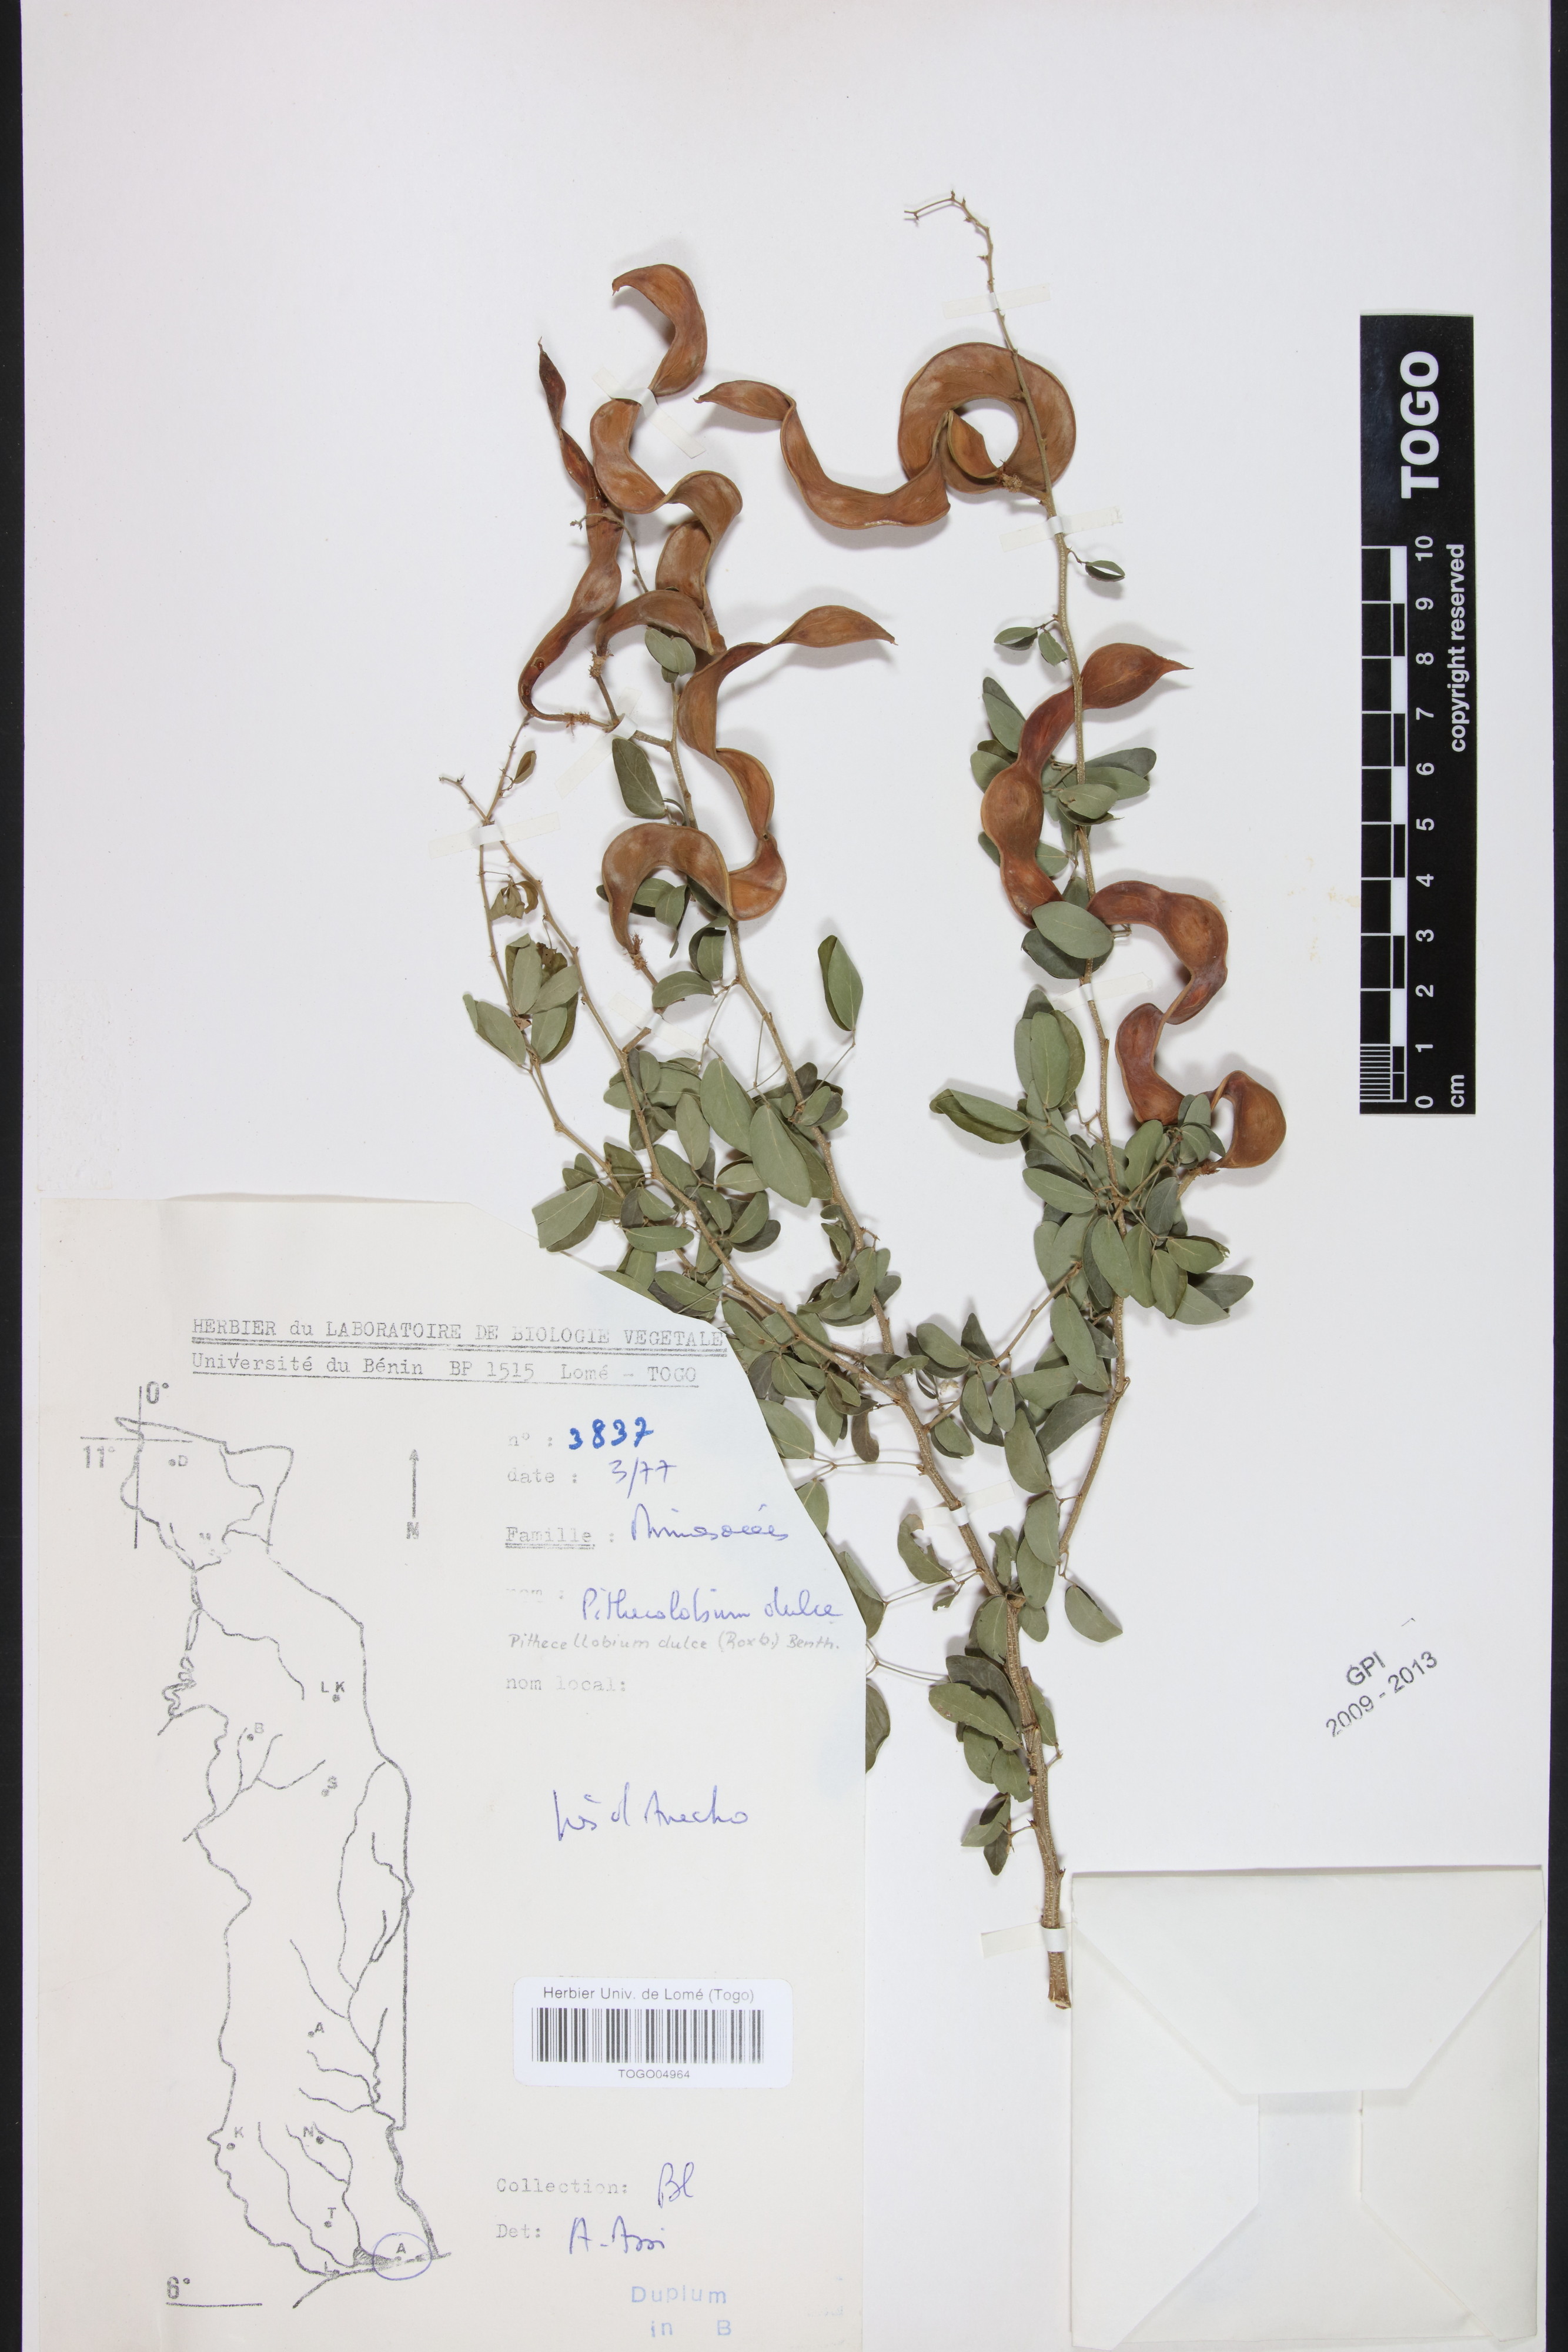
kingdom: Plantae
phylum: Tracheophyta
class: Magnoliopsida
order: Fabales
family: Fabaceae
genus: Pithecellobium
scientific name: Pithecellobium dulce
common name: Monkeypod
